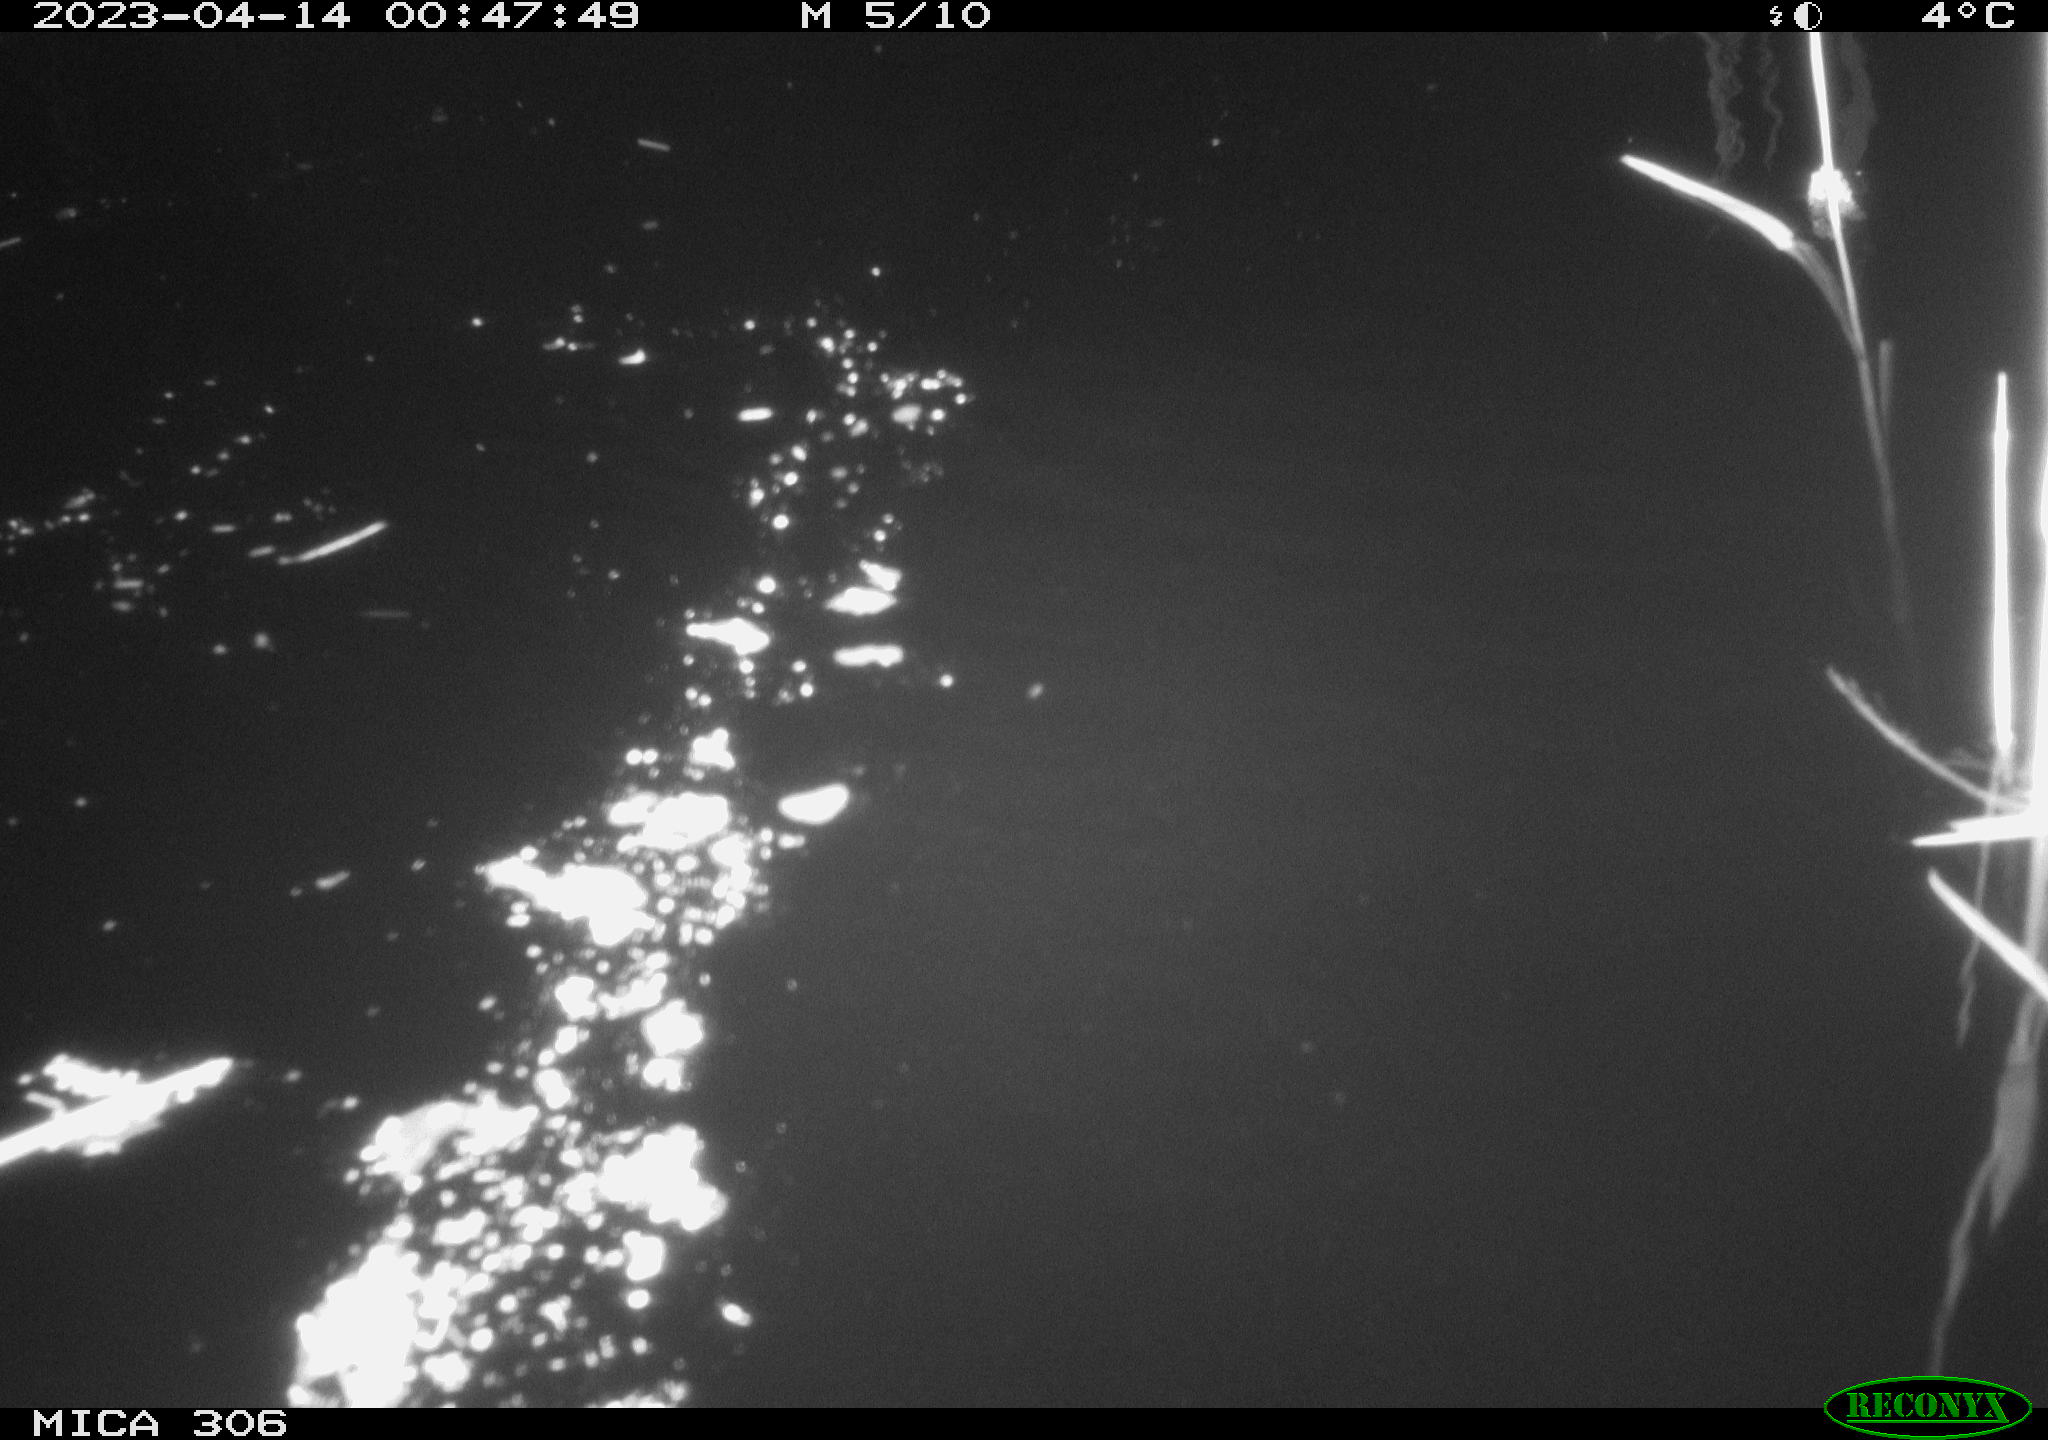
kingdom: Animalia
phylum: Chordata
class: Aves
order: Anseriformes
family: Anatidae
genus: Anas
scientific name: Anas
